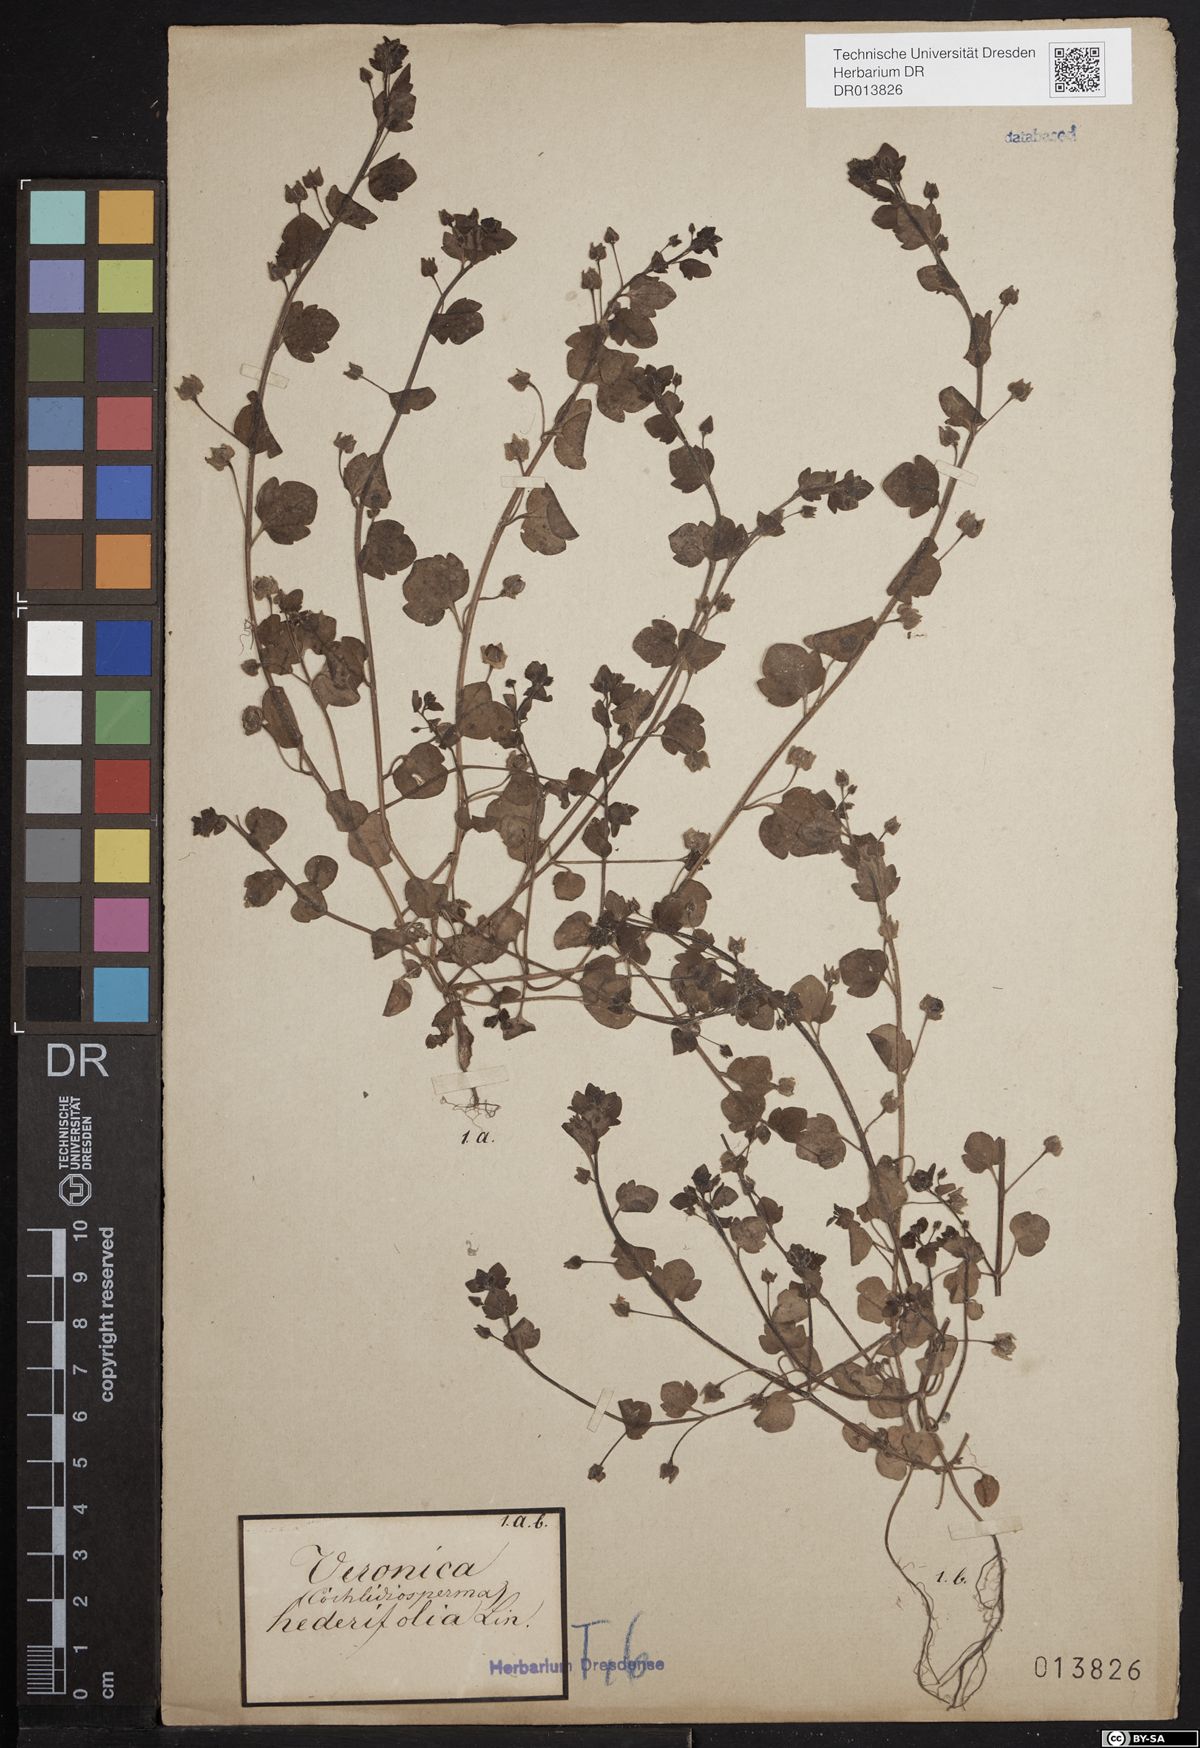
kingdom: Plantae
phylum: Tracheophyta
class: Magnoliopsida
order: Lamiales
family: Plantaginaceae
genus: Veronica
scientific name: Veronica hederifolia
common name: Ivy-leaved speedwell
